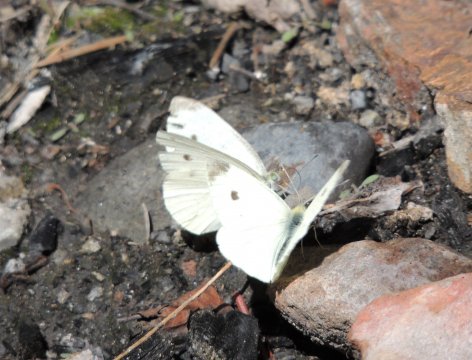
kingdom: Animalia
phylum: Arthropoda
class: Insecta
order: Lepidoptera
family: Pieridae
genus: Pieris
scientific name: Pieris rapae
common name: Cabbage White
